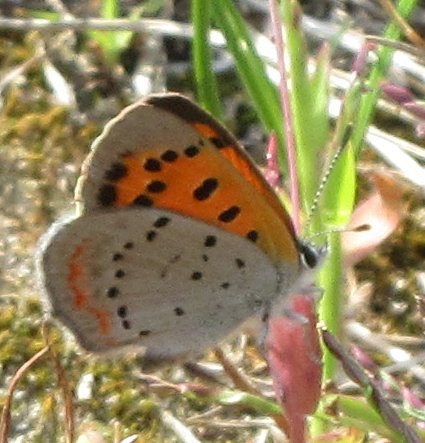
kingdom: Animalia
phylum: Arthropoda
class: Insecta
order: Lepidoptera
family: Lycaenidae
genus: Lycaena
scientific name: Lycaena phlaeas
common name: American Copper
